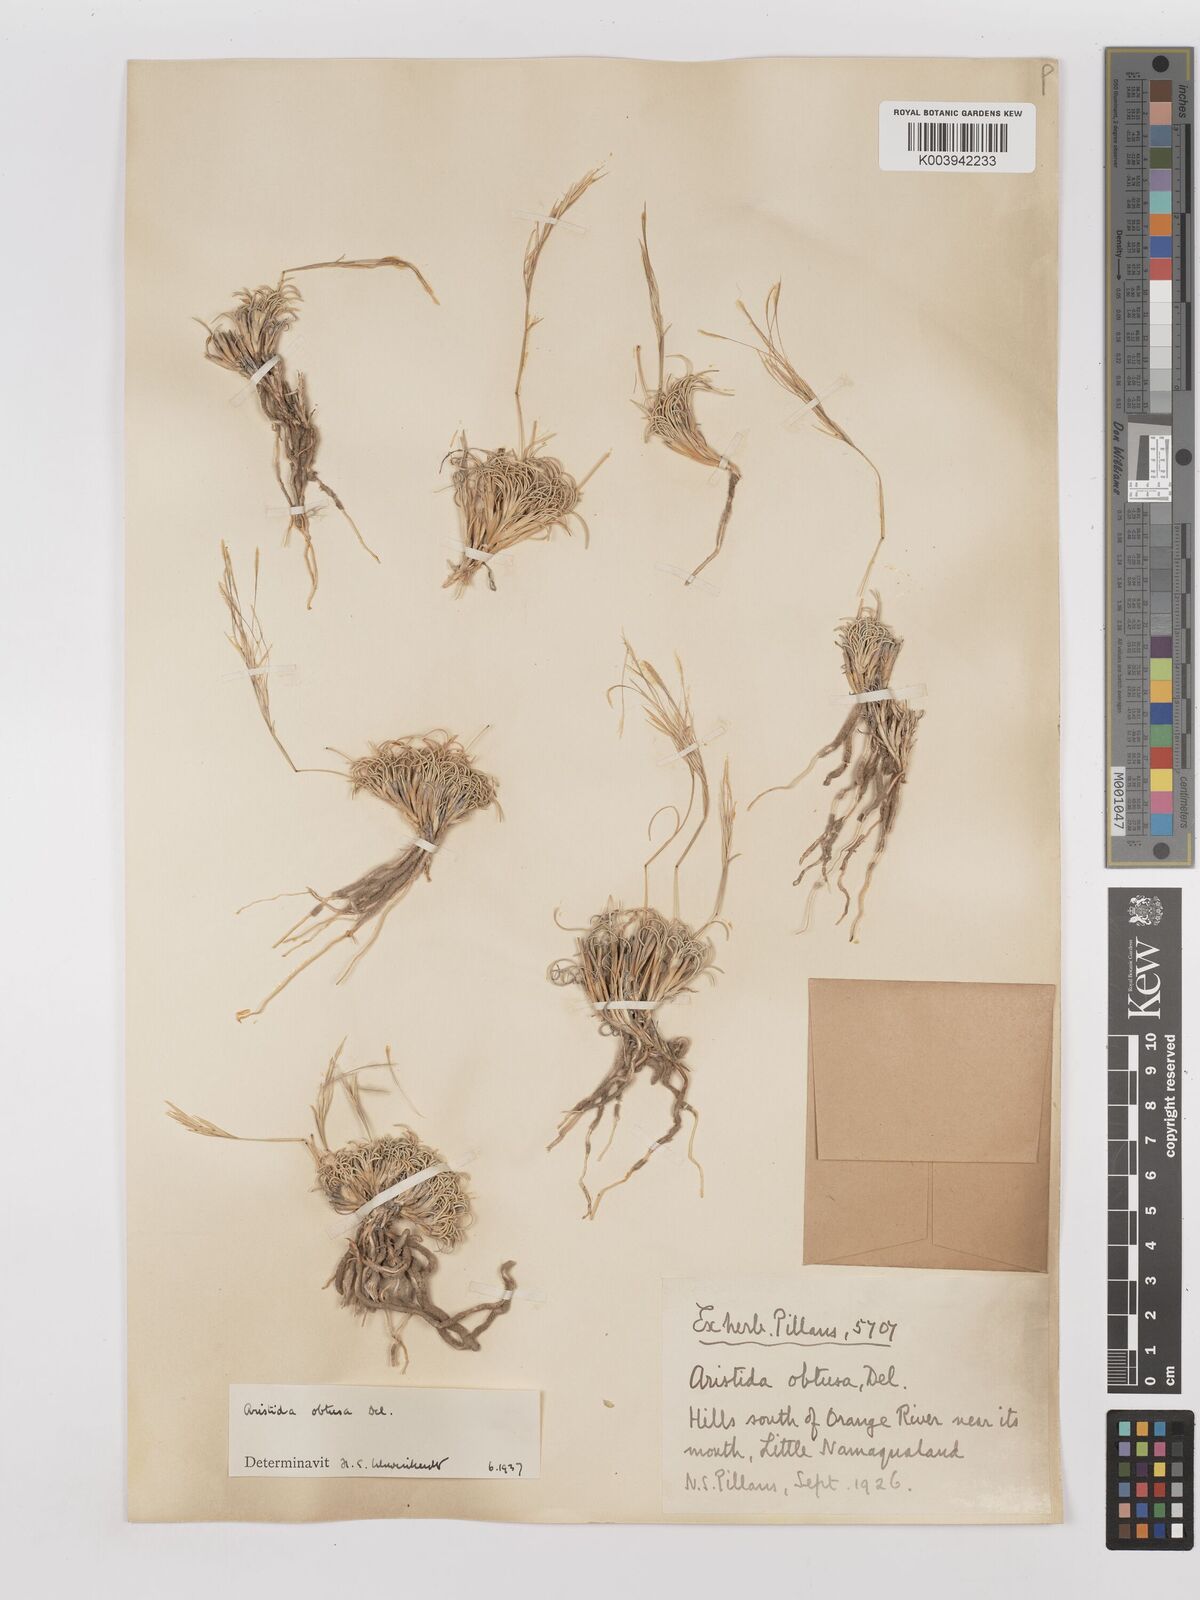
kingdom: Plantae
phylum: Tracheophyta
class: Liliopsida
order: Poales
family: Poaceae
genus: Stipagrostis
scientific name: Stipagrostis obtusa
